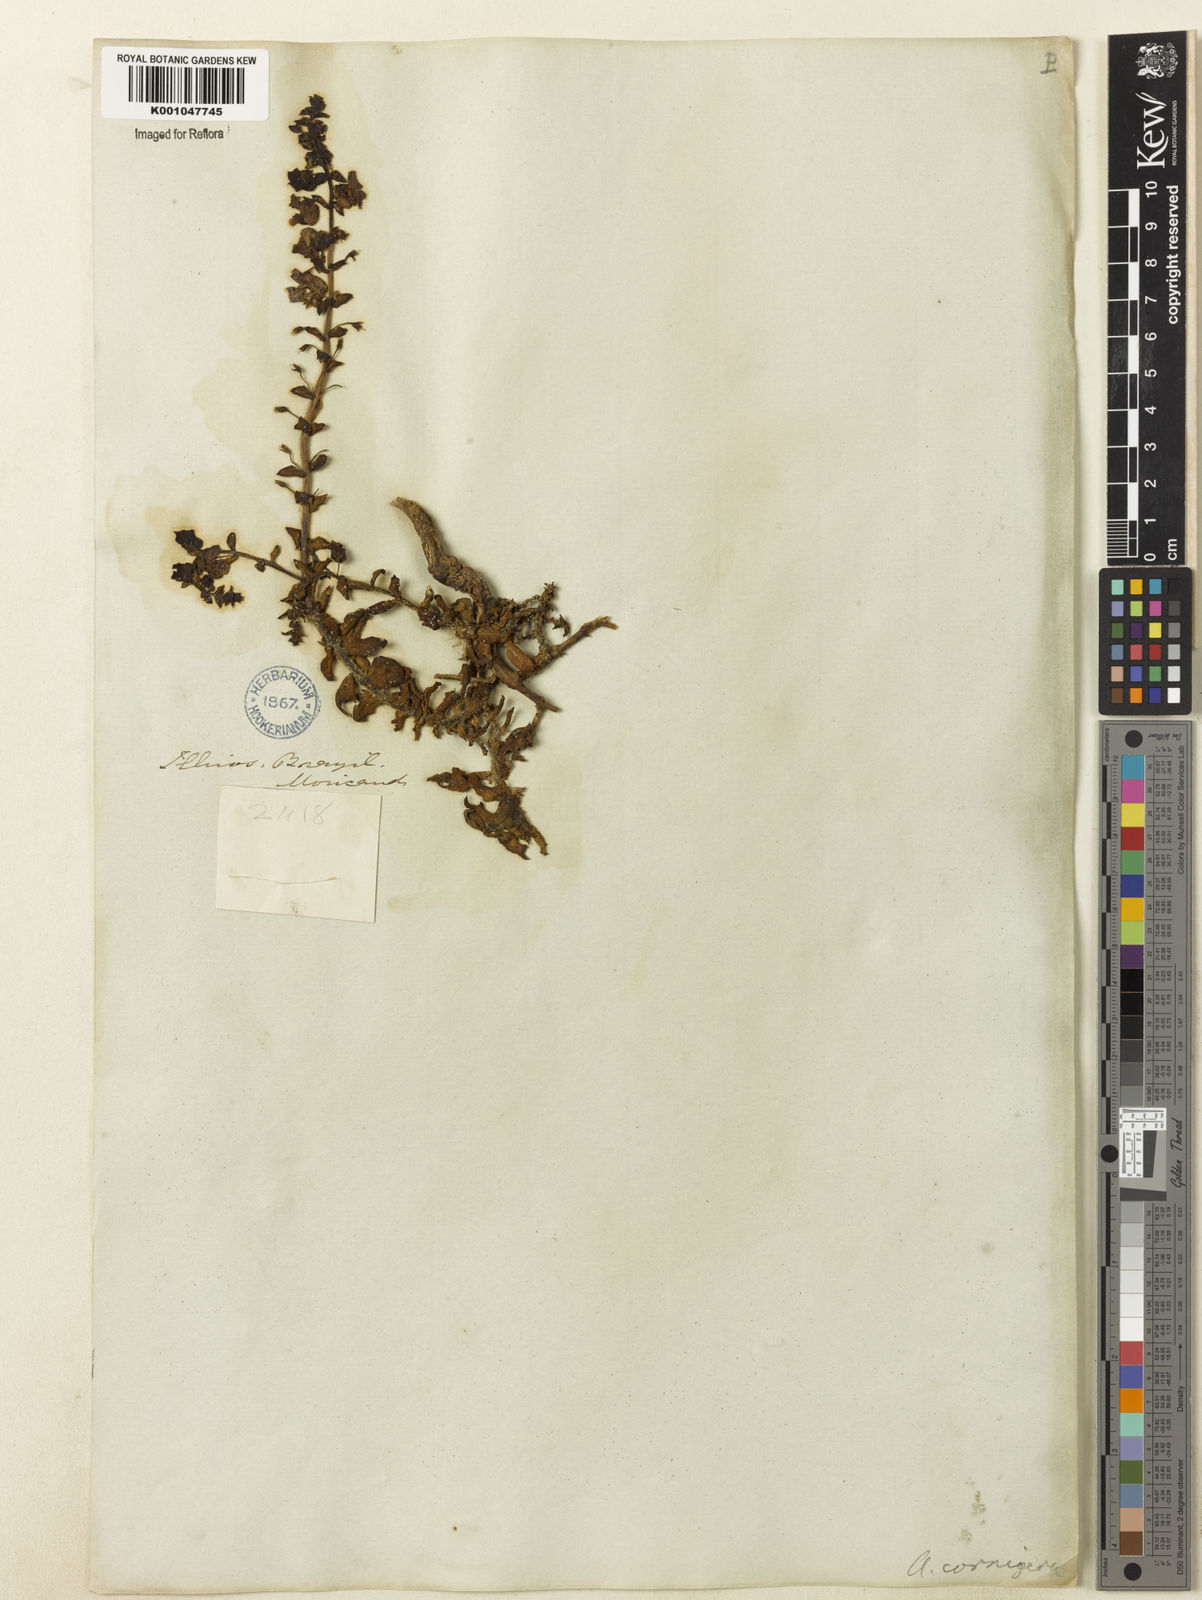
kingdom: Plantae
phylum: Tracheophyta
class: Magnoliopsida
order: Lamiales
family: Plantaginaceae
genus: Angelonia
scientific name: Angelonia cornigera
